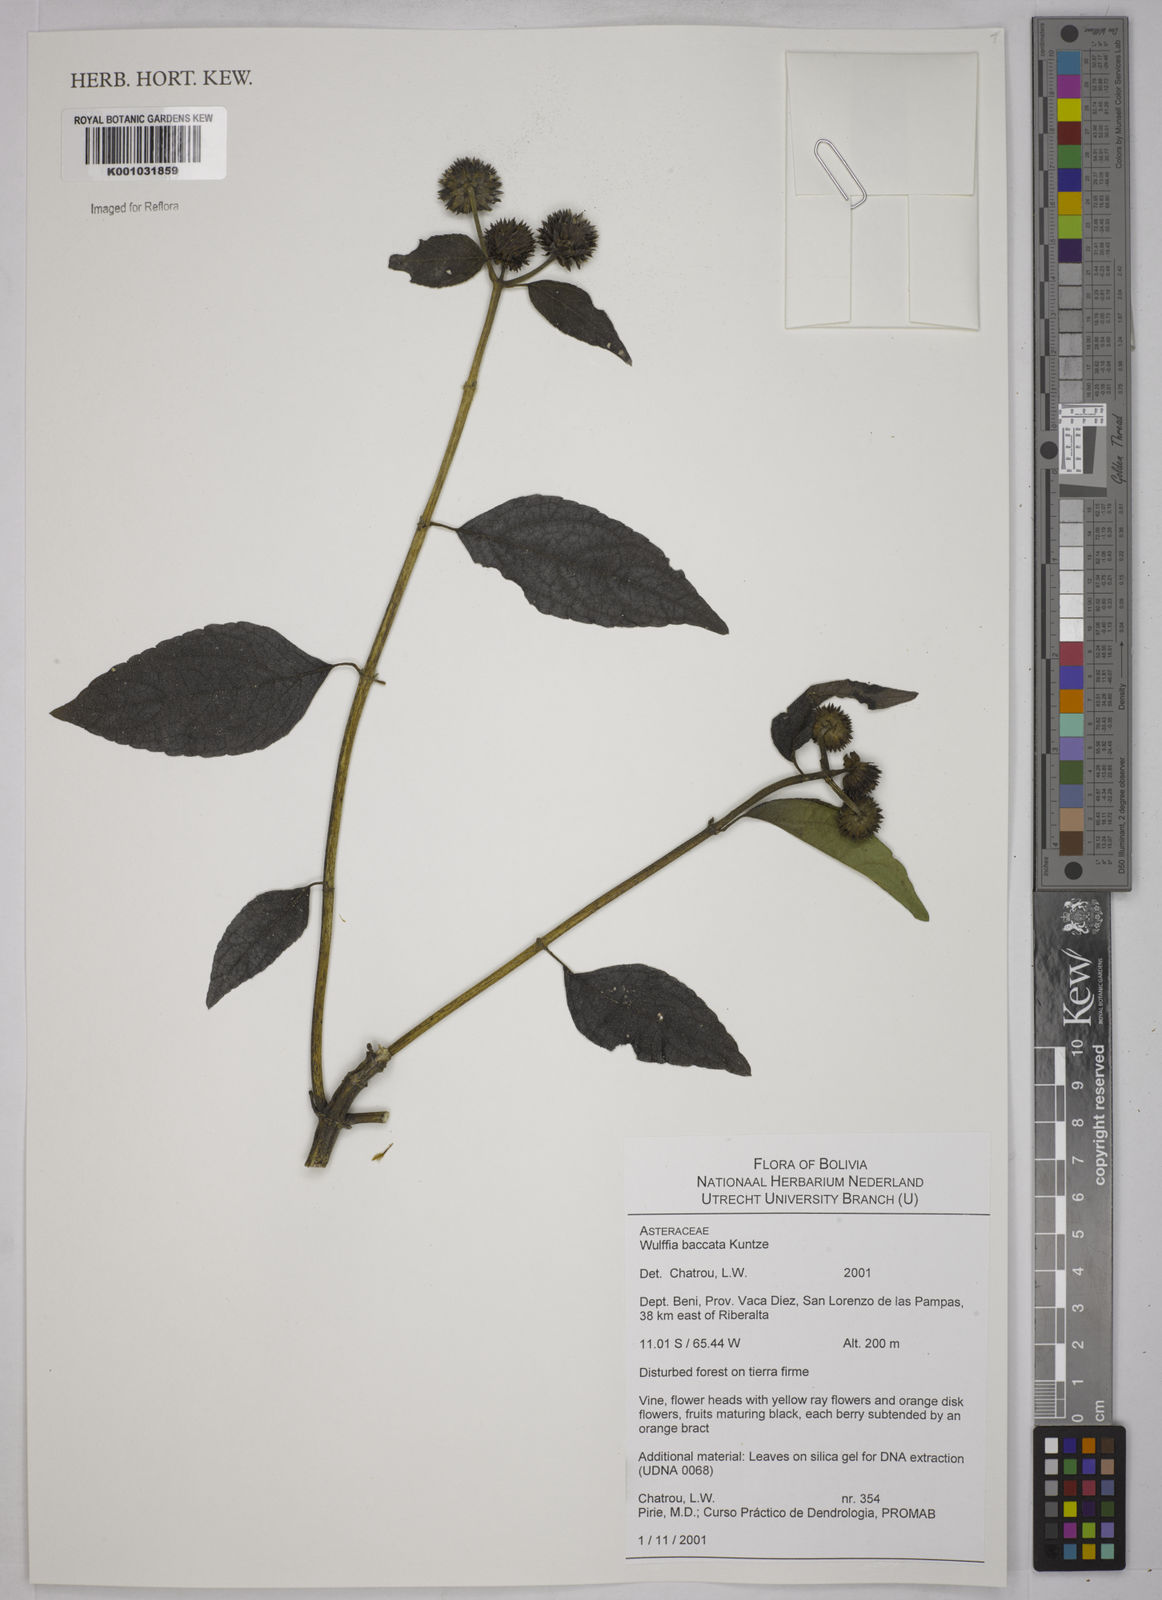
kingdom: Plantae
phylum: Tracheophyta
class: Magnoliopsida
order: Asterales
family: Asteraceae
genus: Tilesia
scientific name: Tilesia baccata
